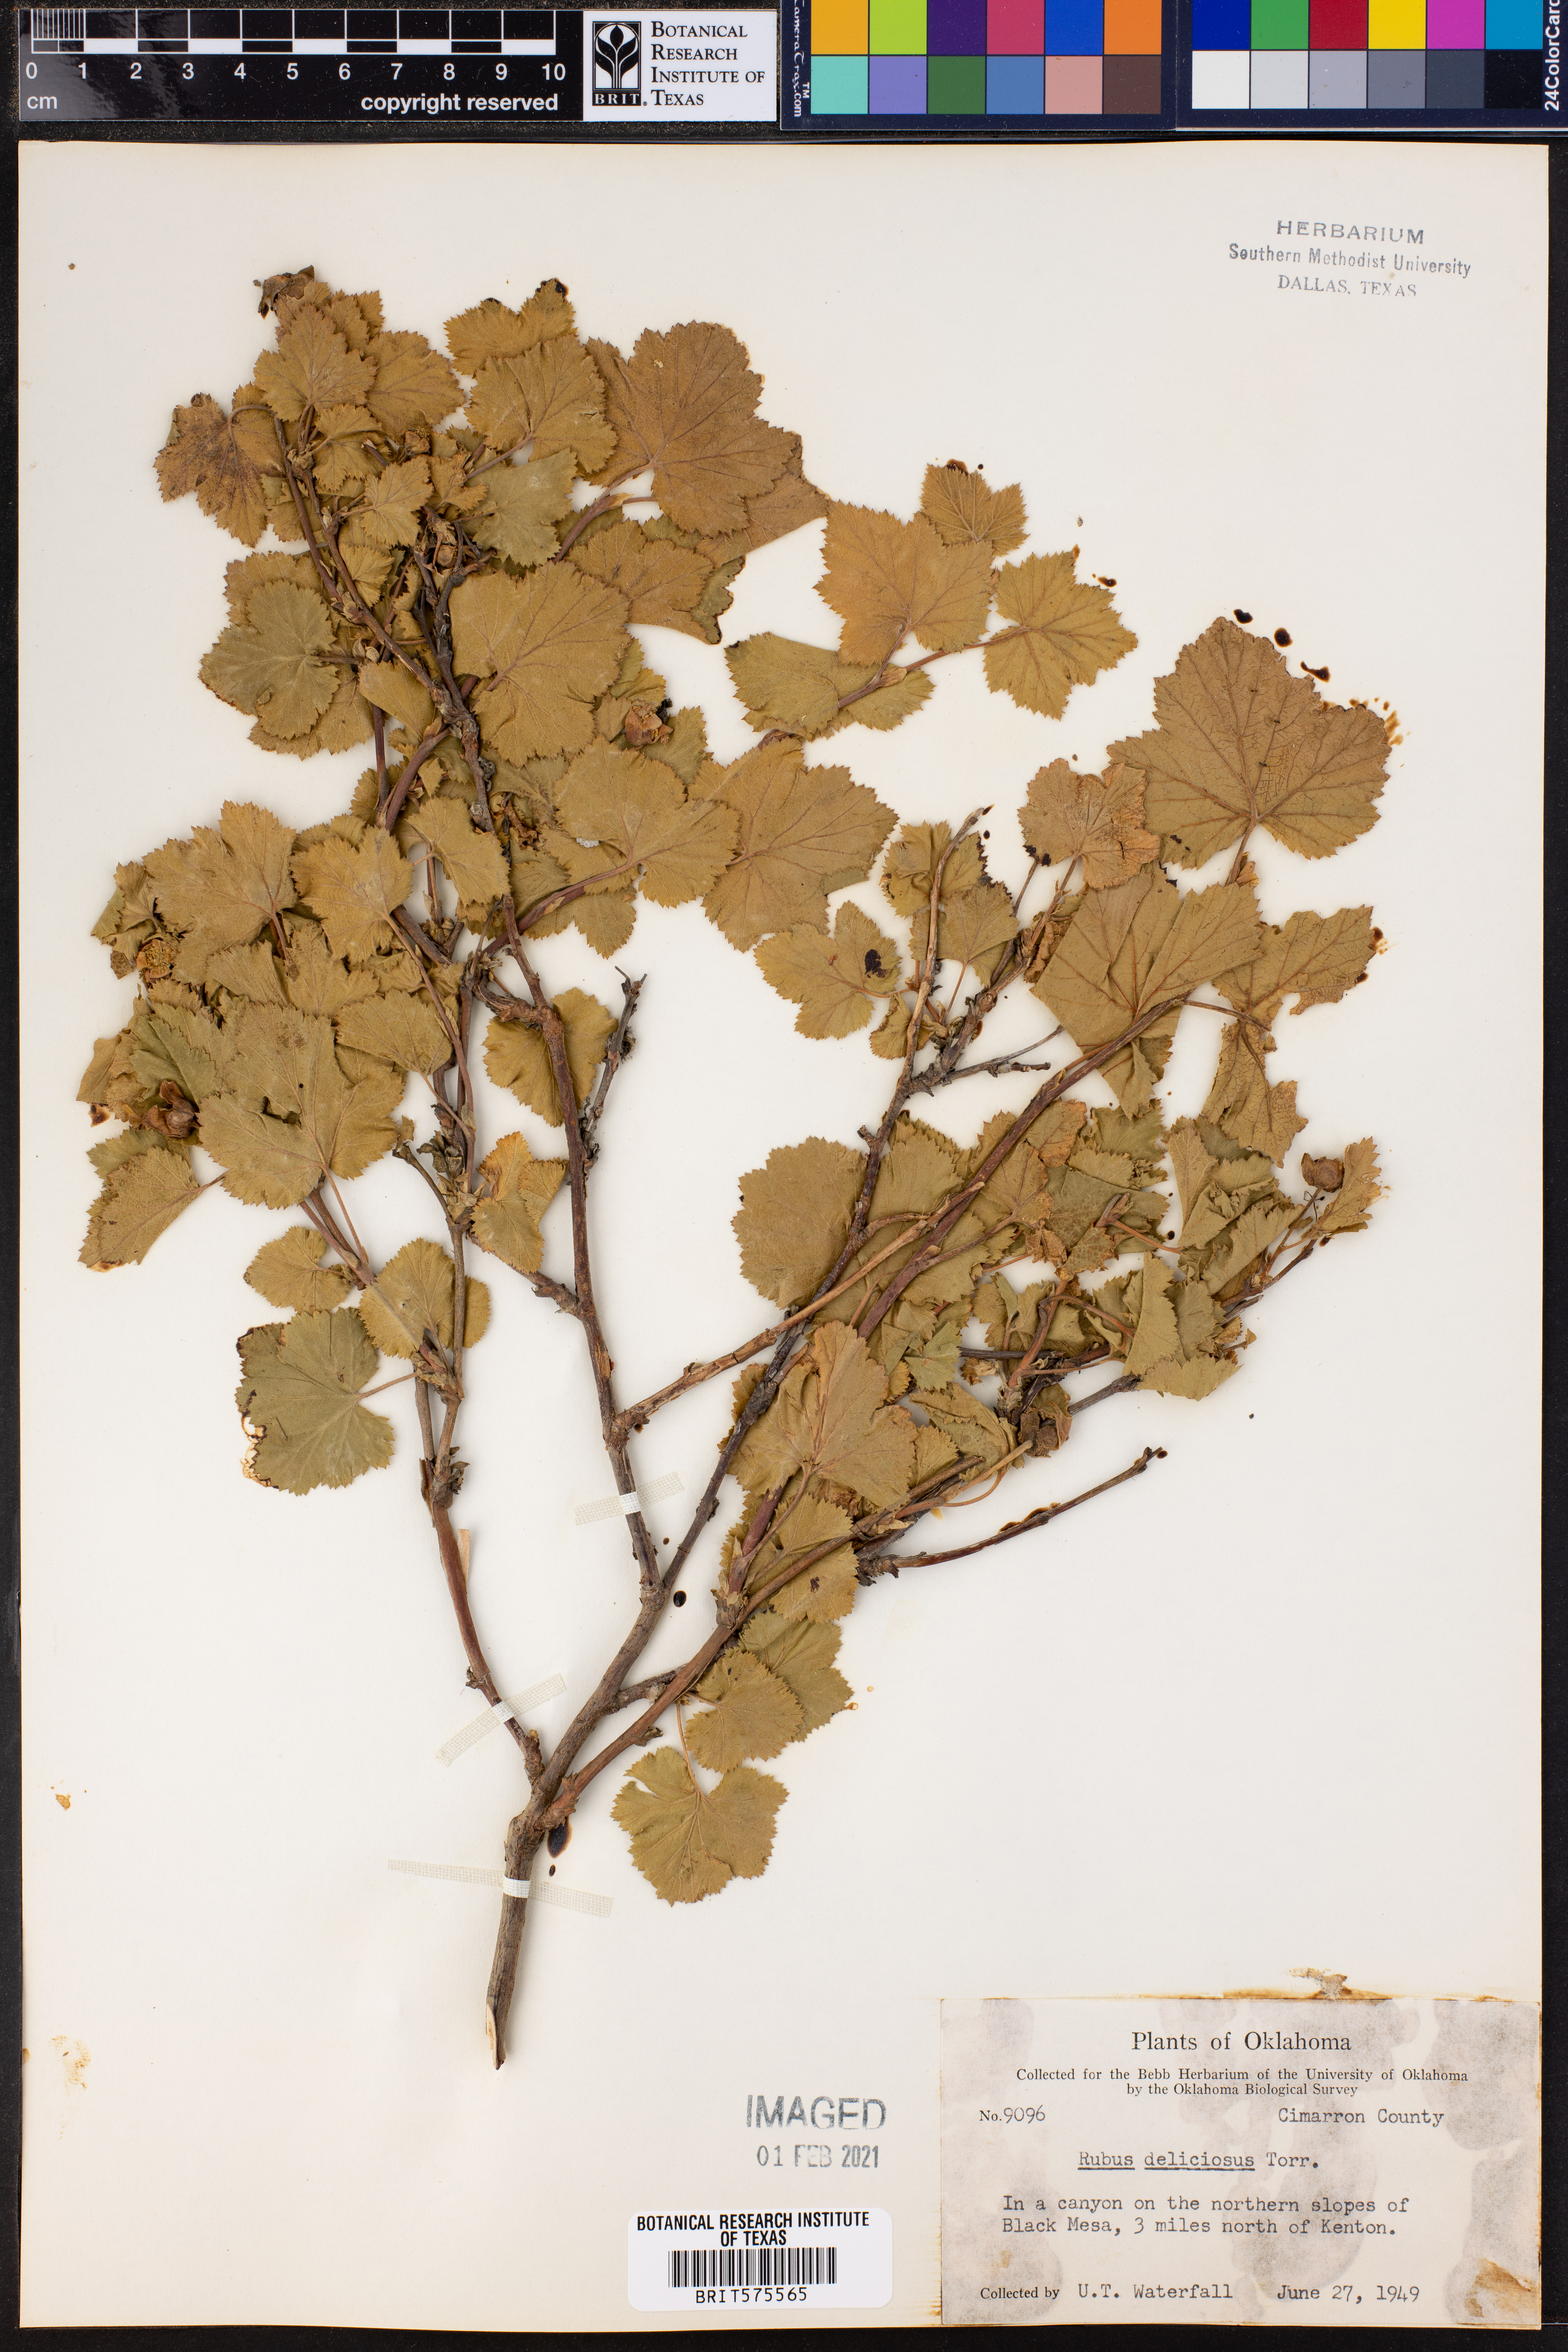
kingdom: Plantae
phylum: Tracheophyta
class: Magnoliopsida
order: Rosales
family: Rosaceae
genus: Rubus
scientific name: Rubus deliciosus
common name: Rocky mountain raspberry
